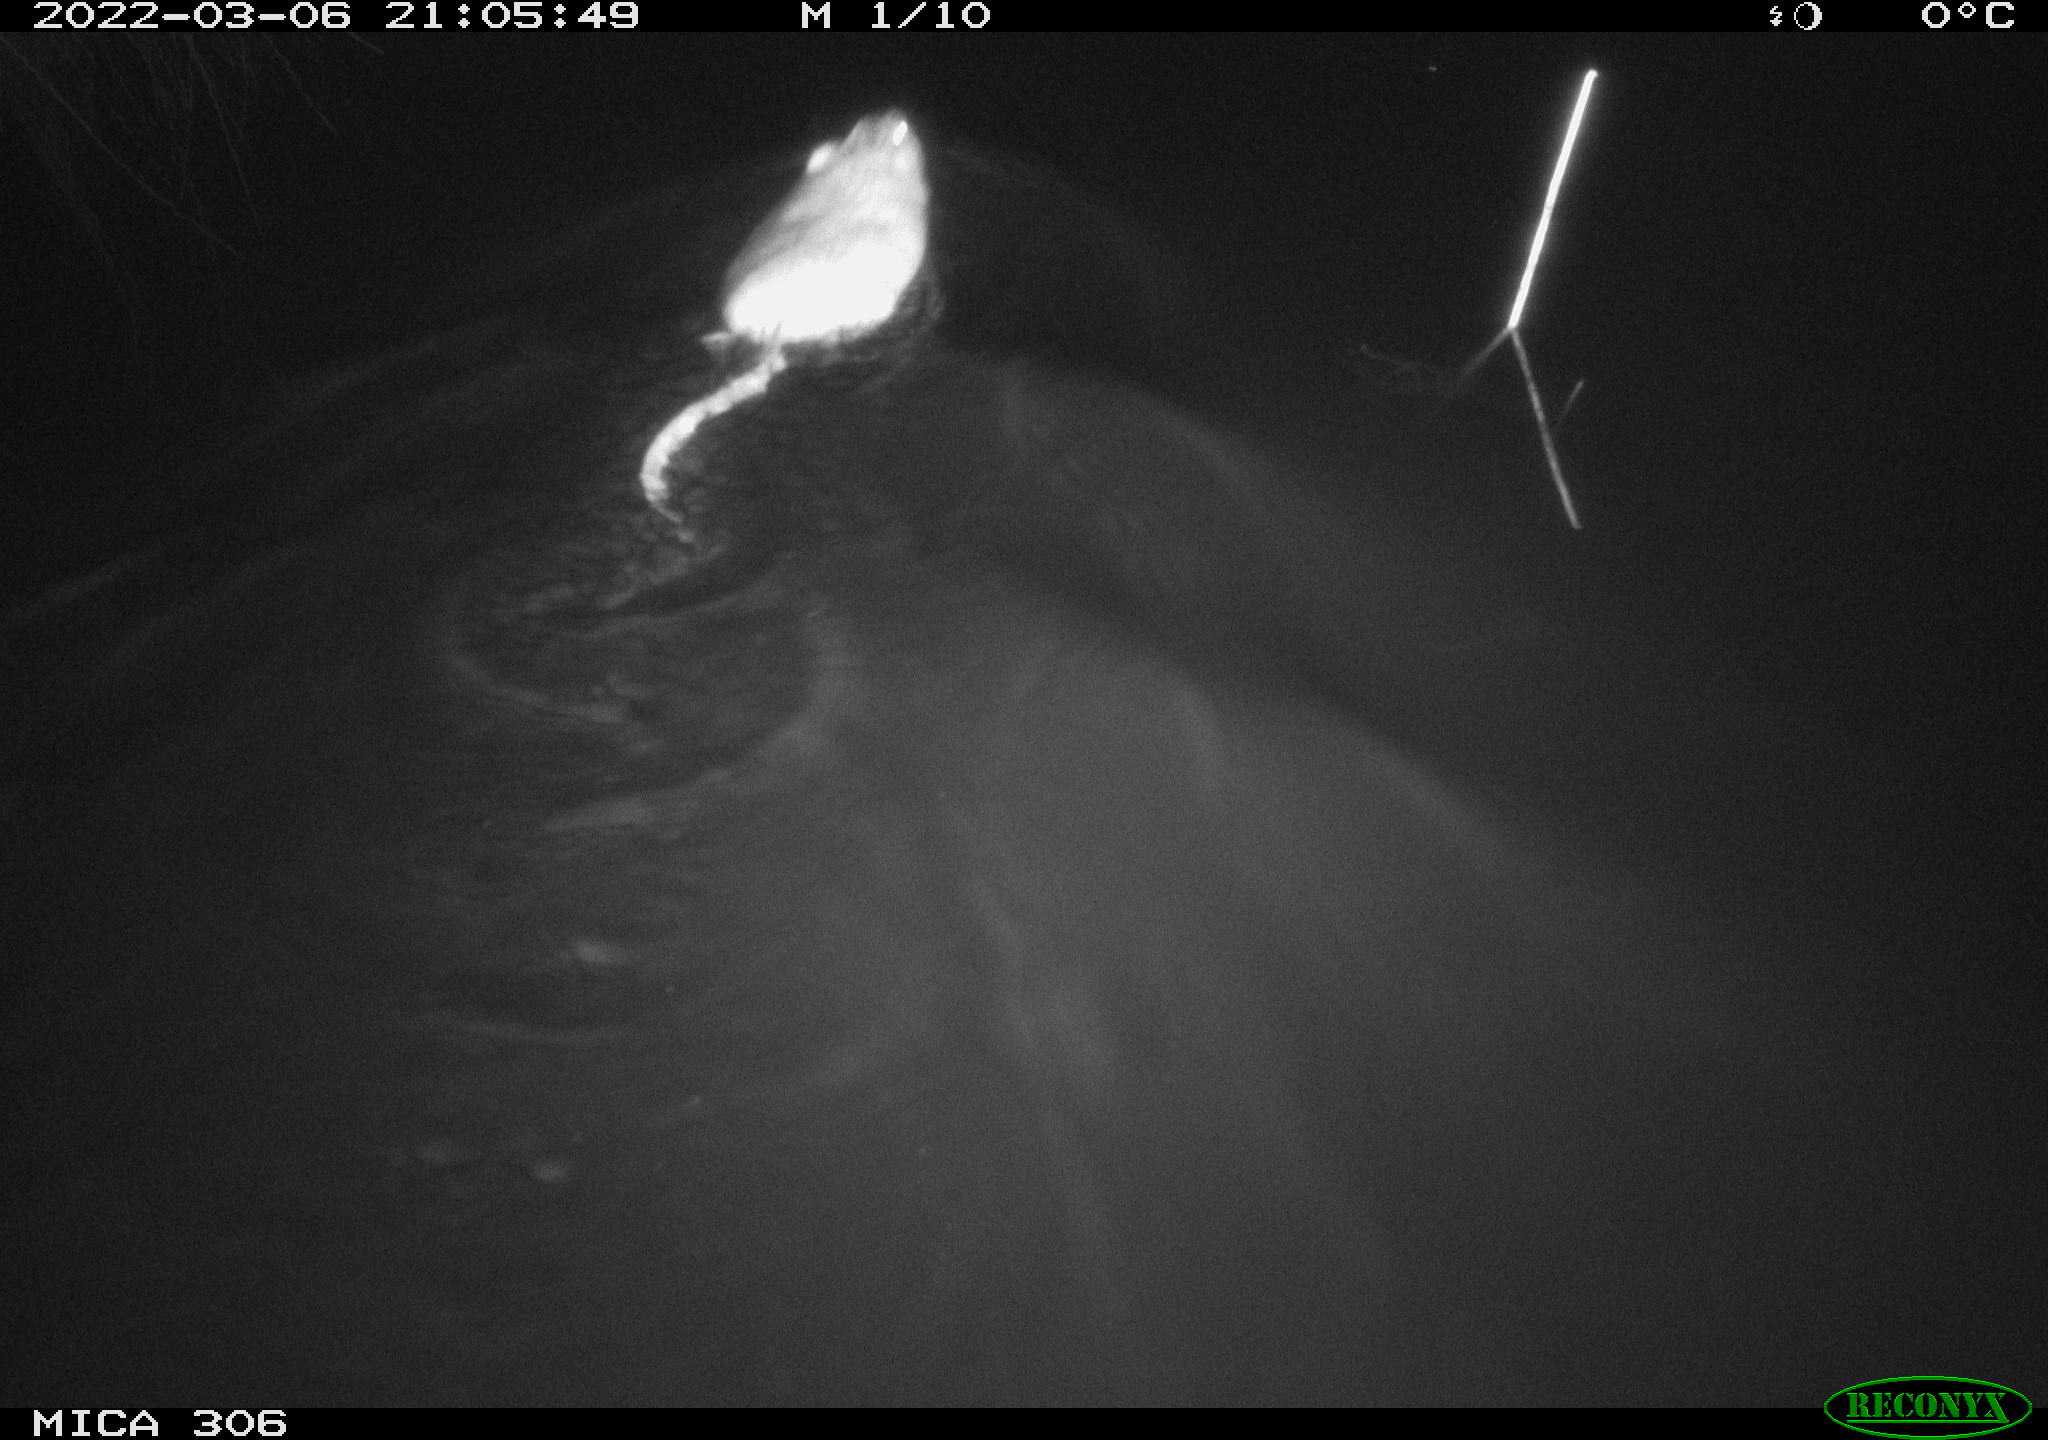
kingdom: Animalia
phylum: Chordata
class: Mammalia
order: Rodentia
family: Cricetidae
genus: Ondatra
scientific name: Ondatra zibethicus
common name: Muskrat
